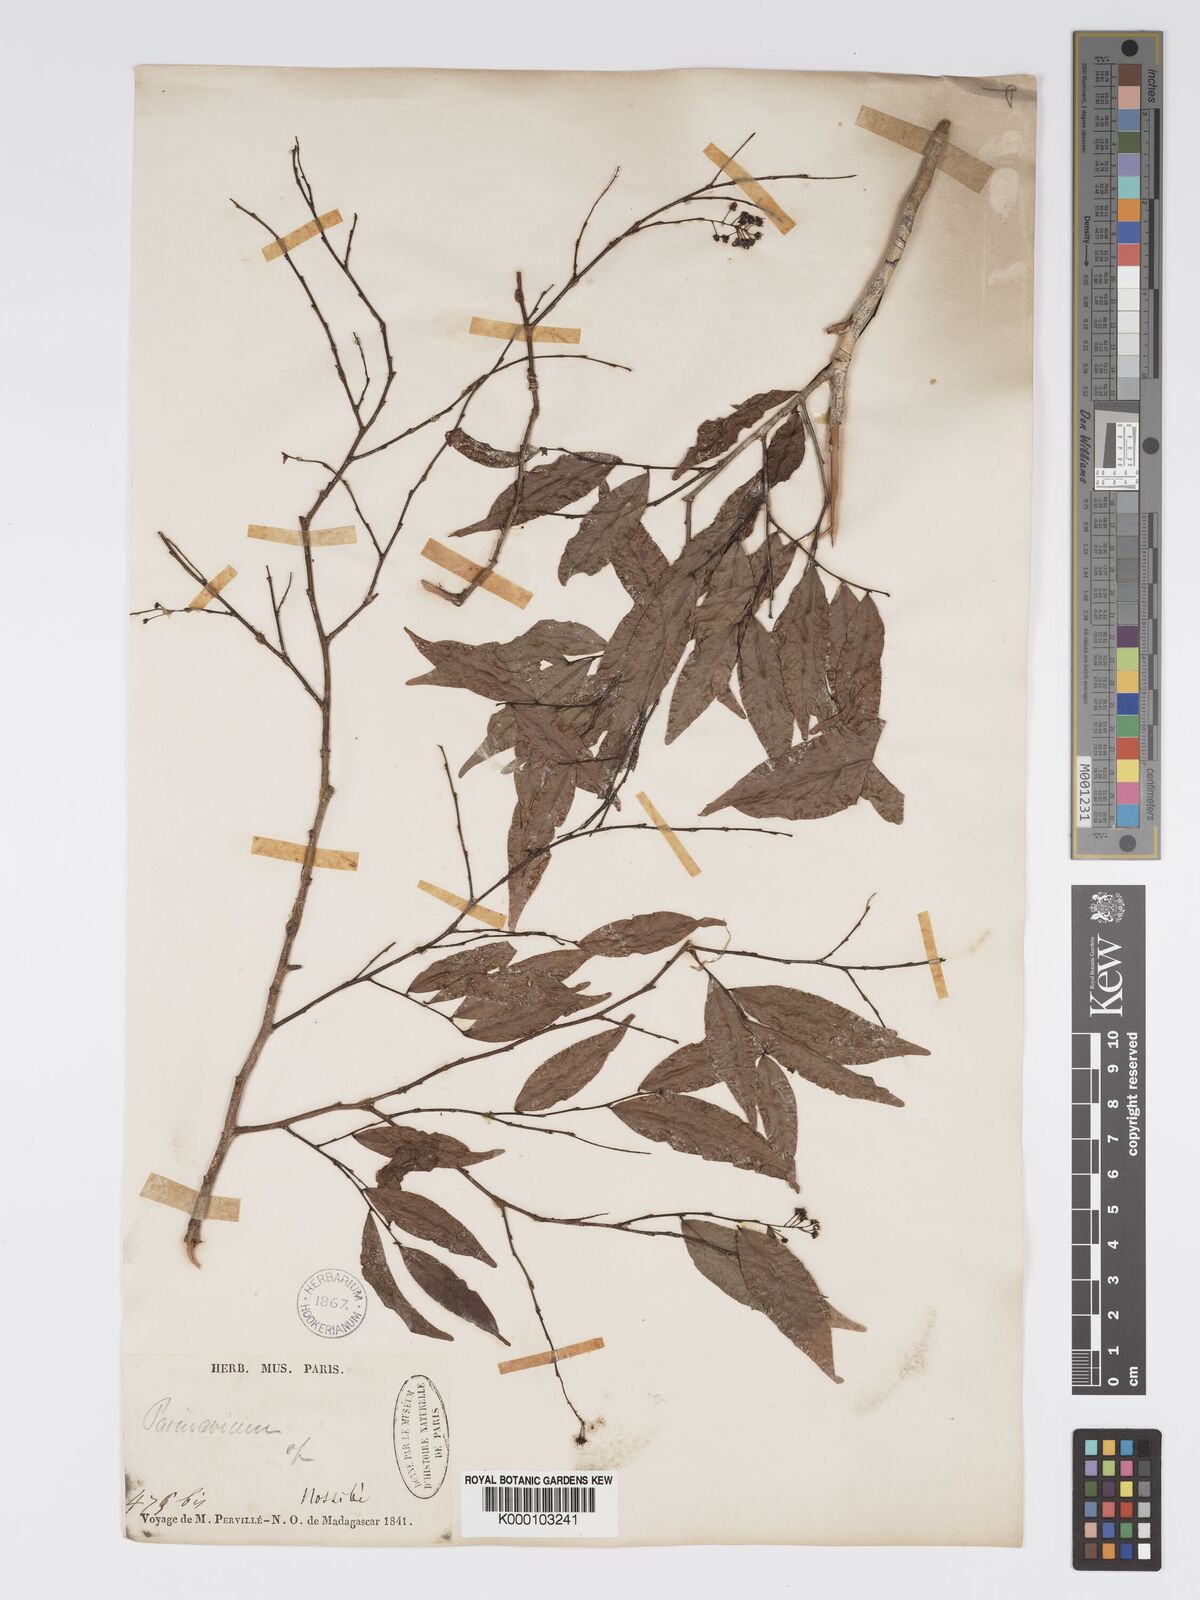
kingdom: Plantae
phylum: Tracheophyta
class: Magnoliopsida
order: Malpighiales
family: Chrysobalanaceae
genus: Grangeria
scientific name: Grangeria porosa
